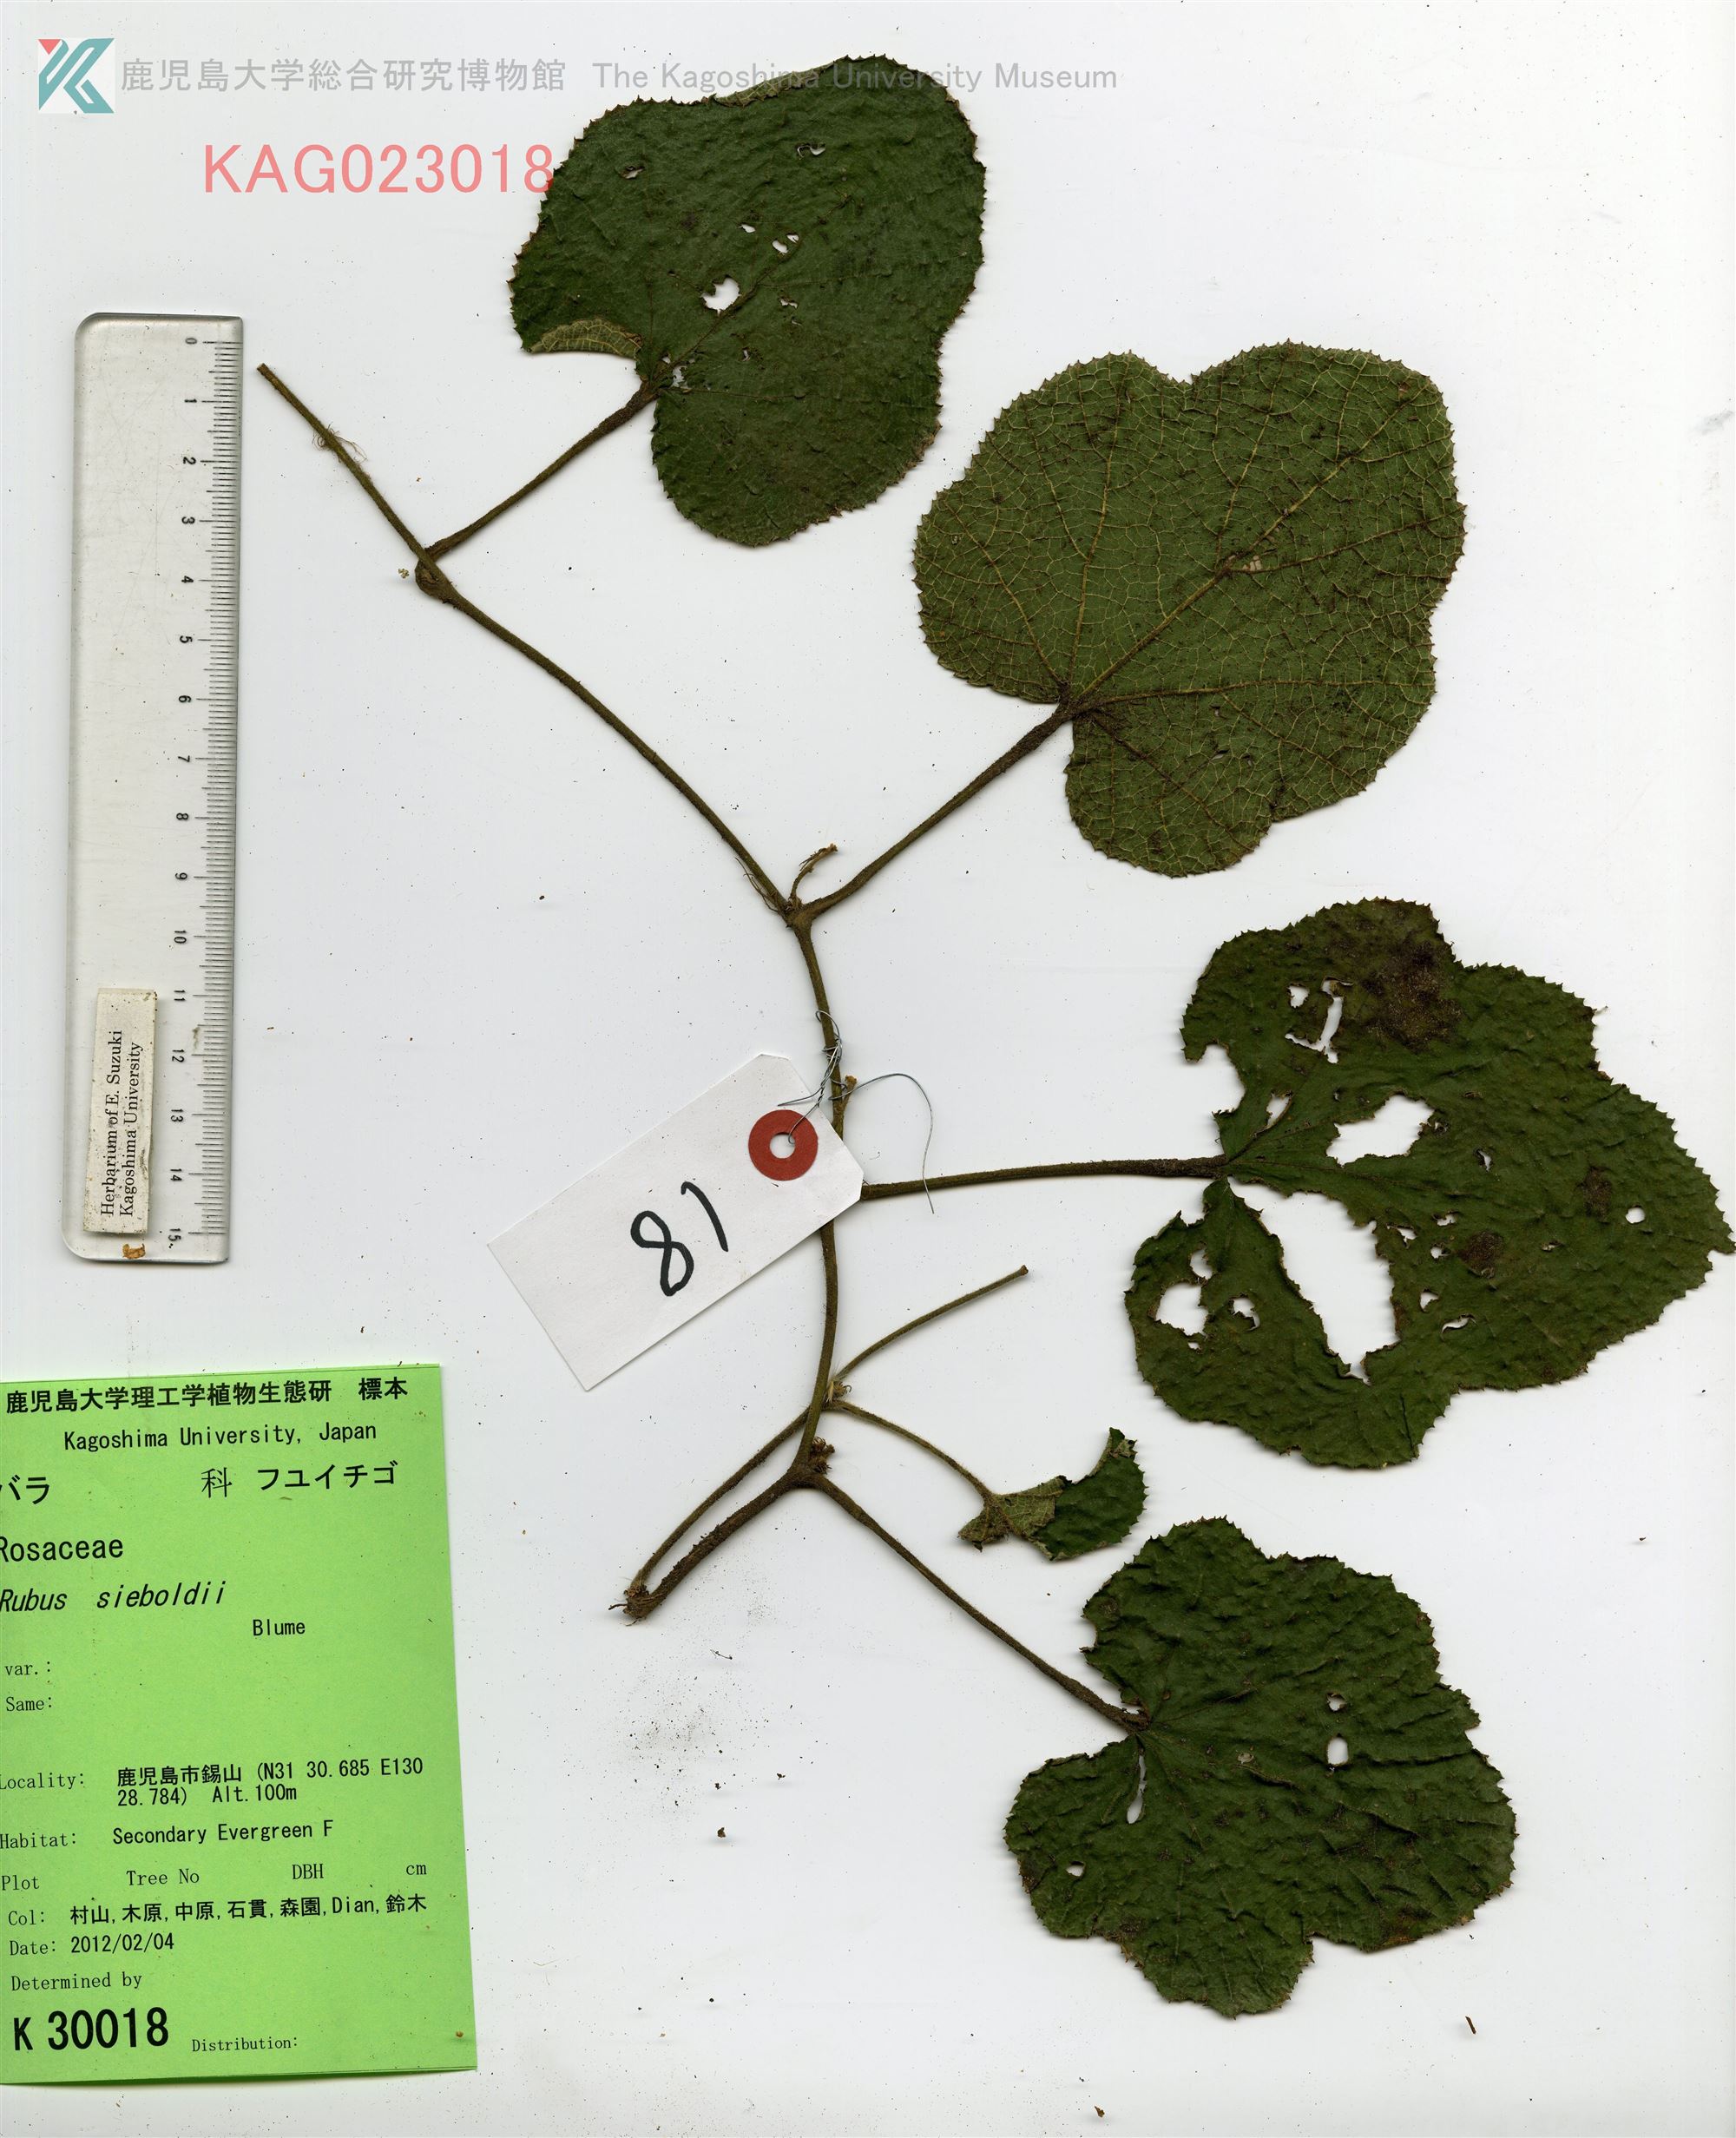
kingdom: Plantae
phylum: Tracheophyta
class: Magnoliopsida
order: Rosales
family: Rosaceae
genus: Rubus
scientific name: Rubus buergeri
